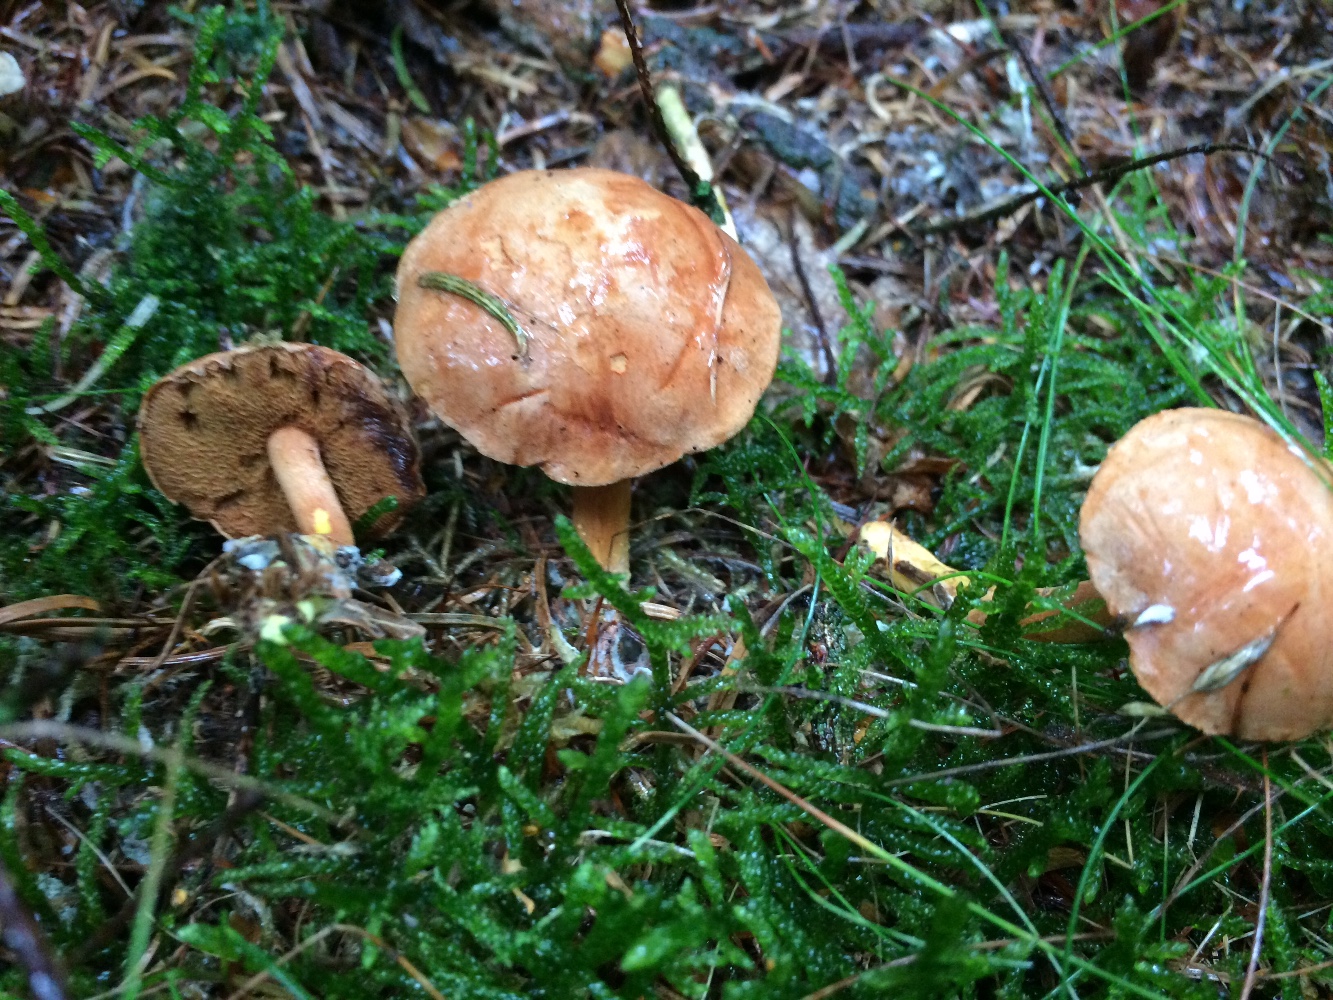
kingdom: Fungi
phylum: Basidiomycota
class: Agaricomycetes
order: Boletales
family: Boletaceae
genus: Chalciporus
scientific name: Chalciporus piperatus
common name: peberrørhat
